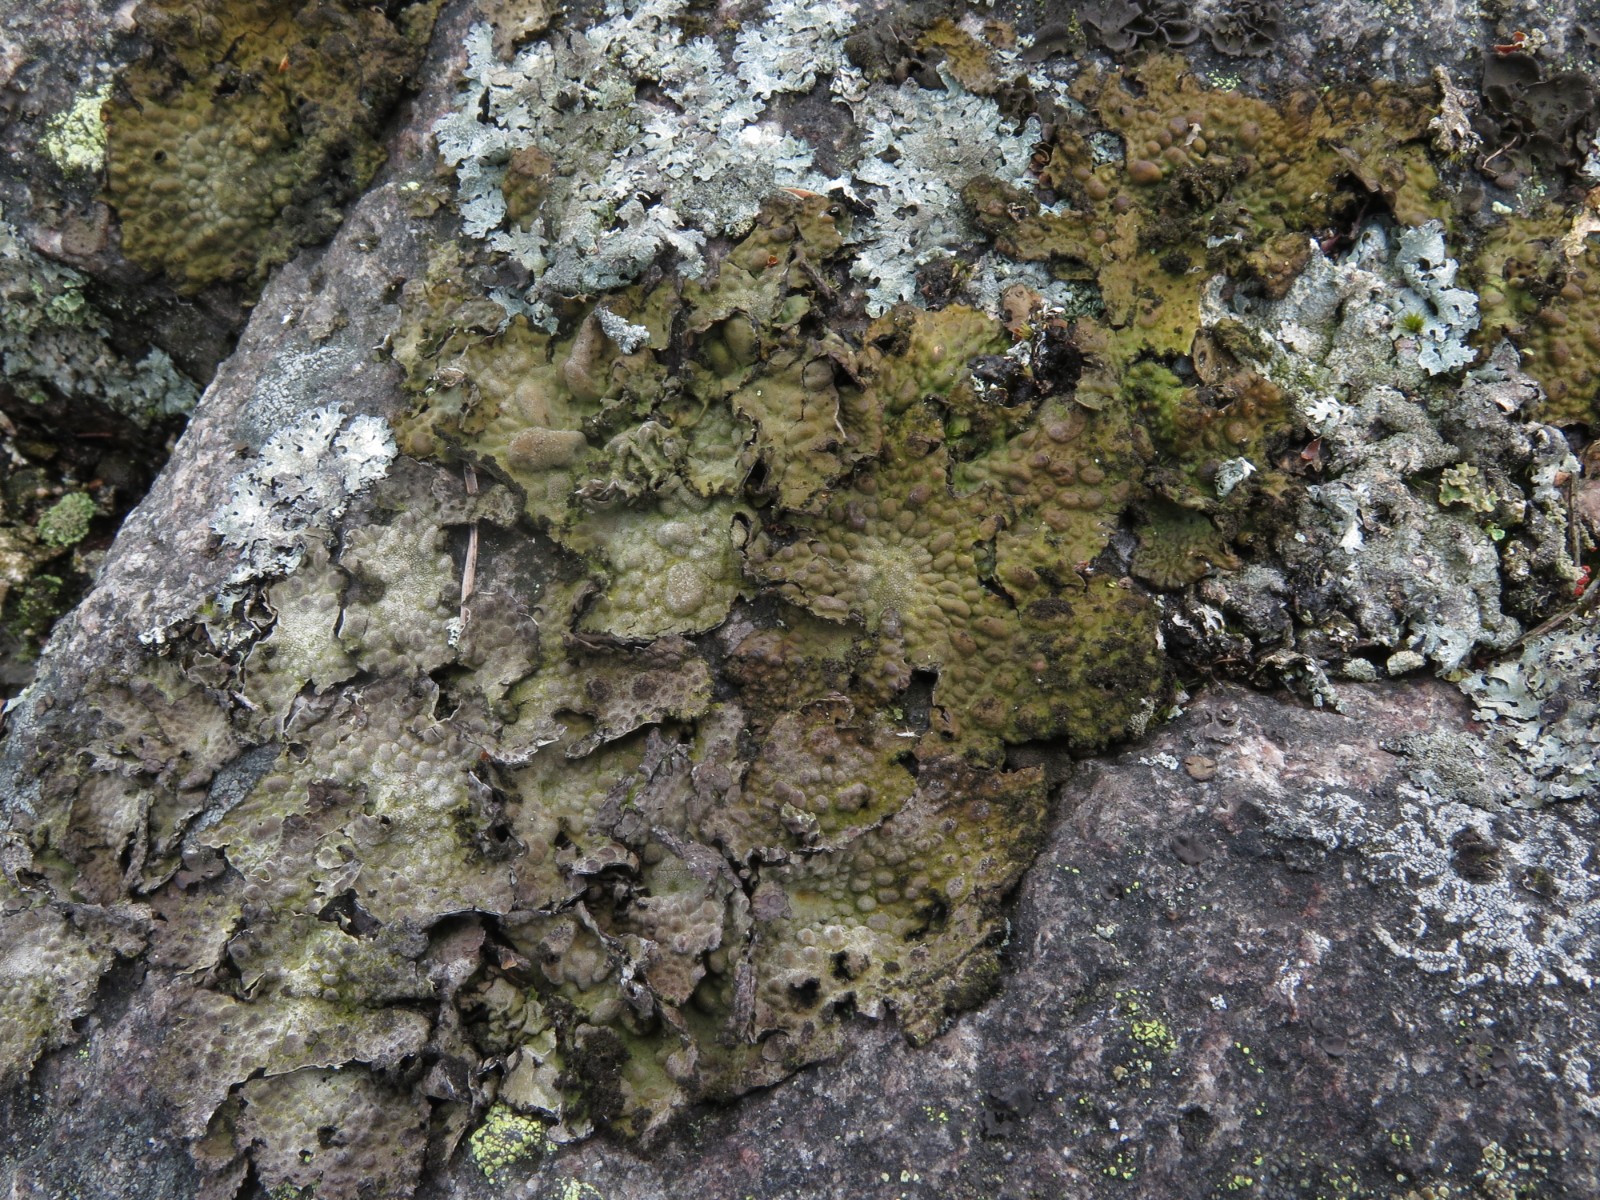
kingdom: Fungi
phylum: Ascomycota
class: Lecanoromycetes
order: Umbilicariales
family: Umbilicariaceae
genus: Lasallia
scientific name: Lasallia pustulata
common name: buklet navlelav
